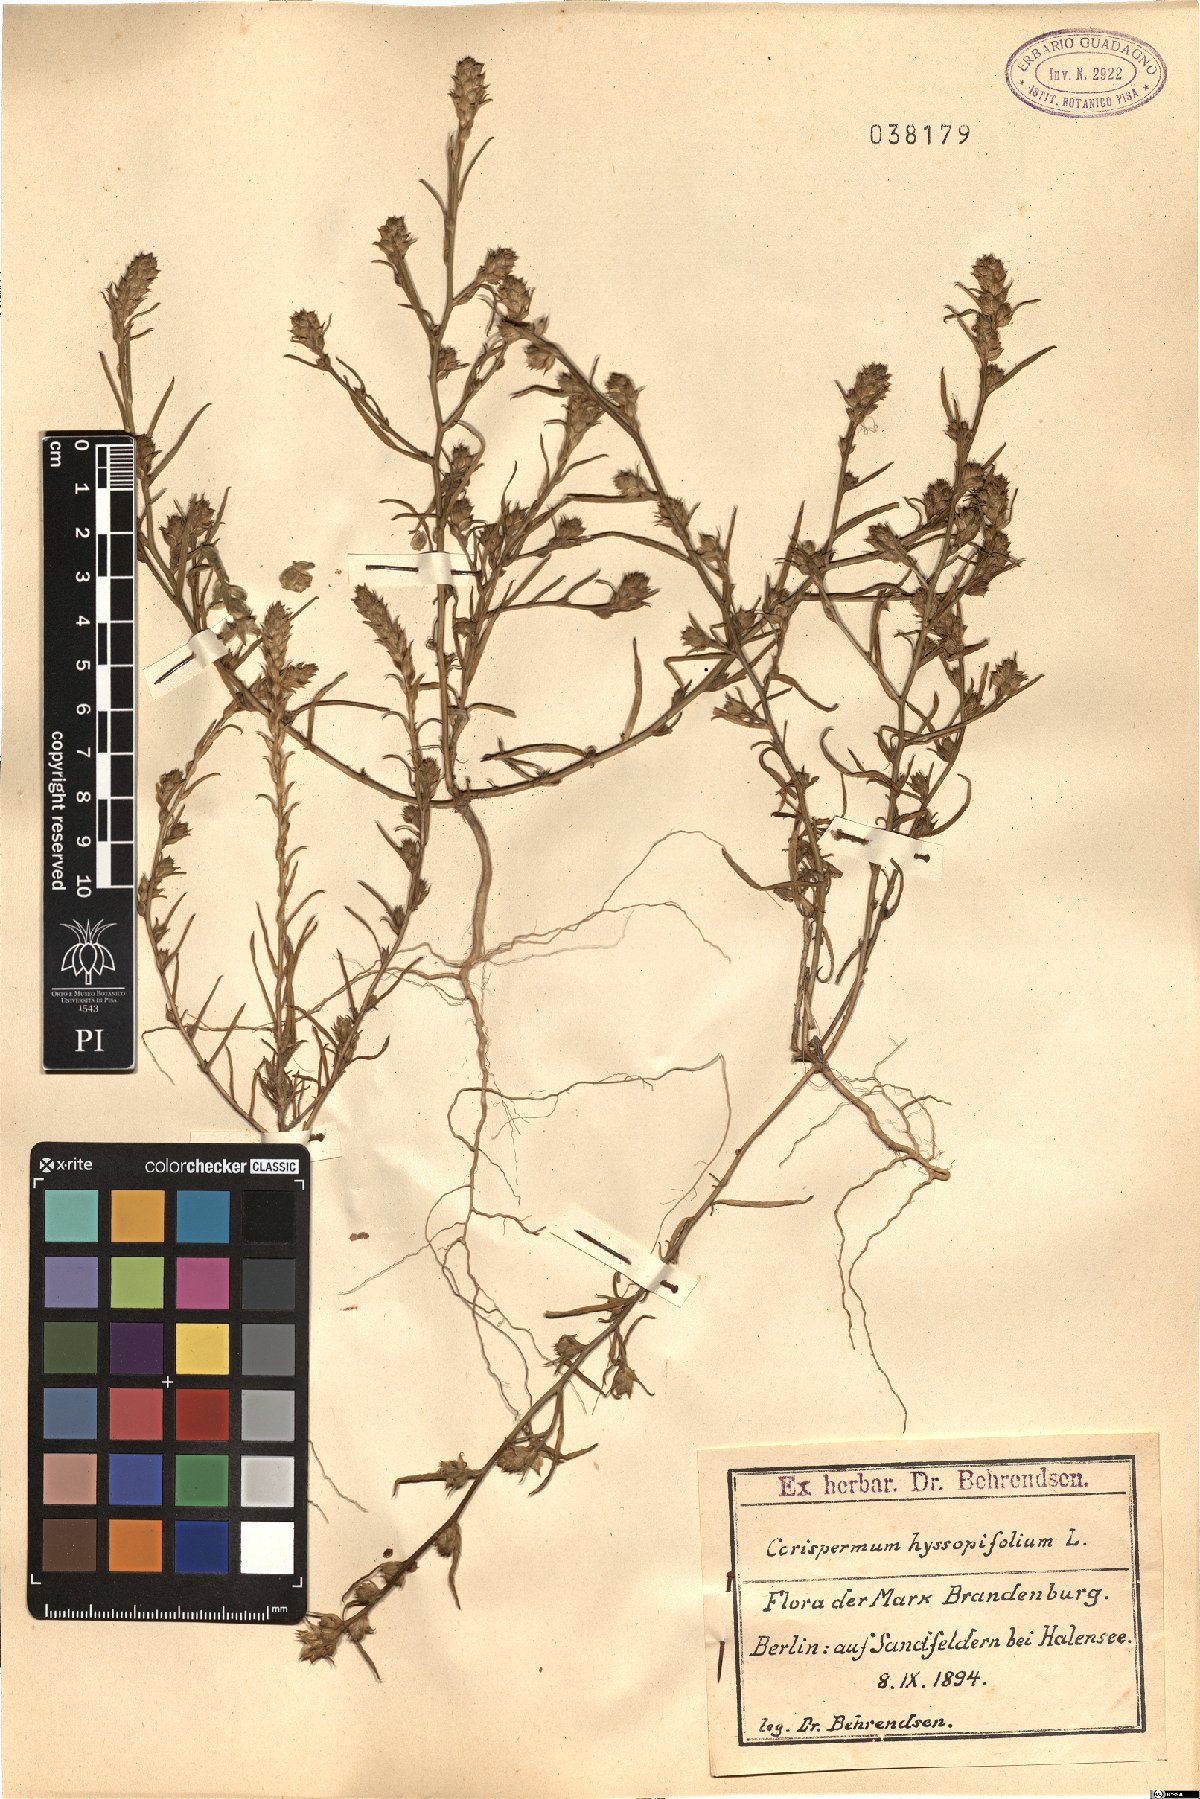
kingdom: Plantae
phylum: Tracheophyta
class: Magnoliopsida
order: Caryophyllales
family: Amaranthaceae
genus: Corispermum
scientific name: Corispermum hyssopifolium
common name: Bugseed
